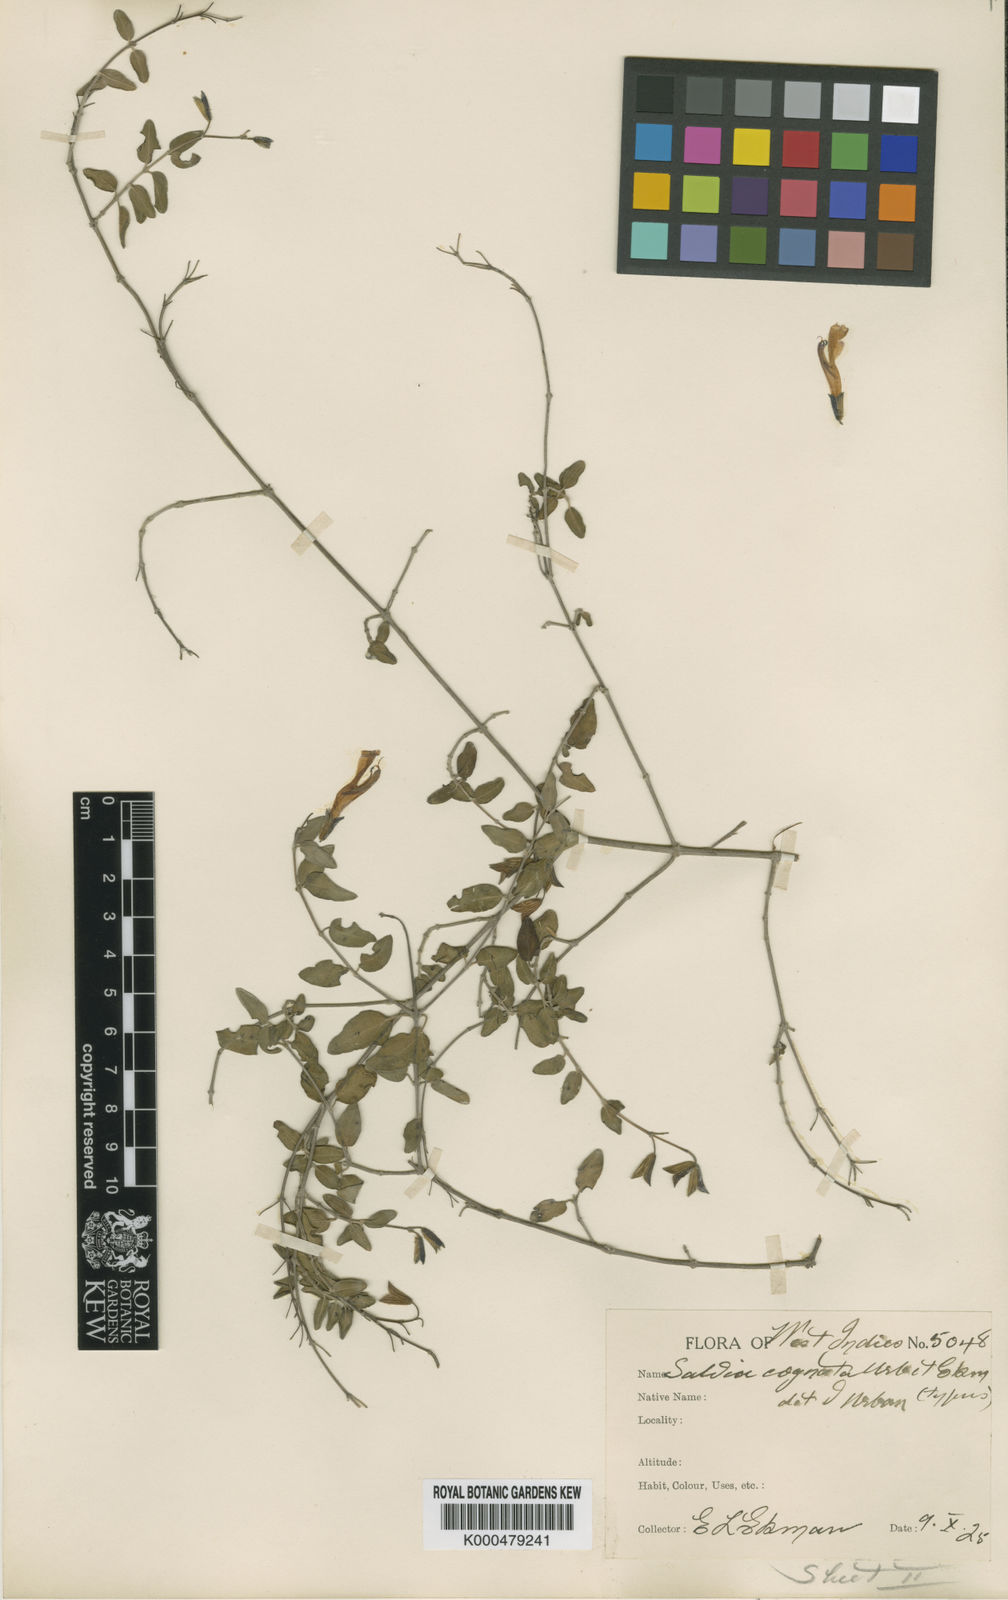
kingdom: Plantae
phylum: Tracheophyta
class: Magnoliopsida
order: Lamiales
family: Lamiaceae
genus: Salvia
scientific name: Salvia cognata
